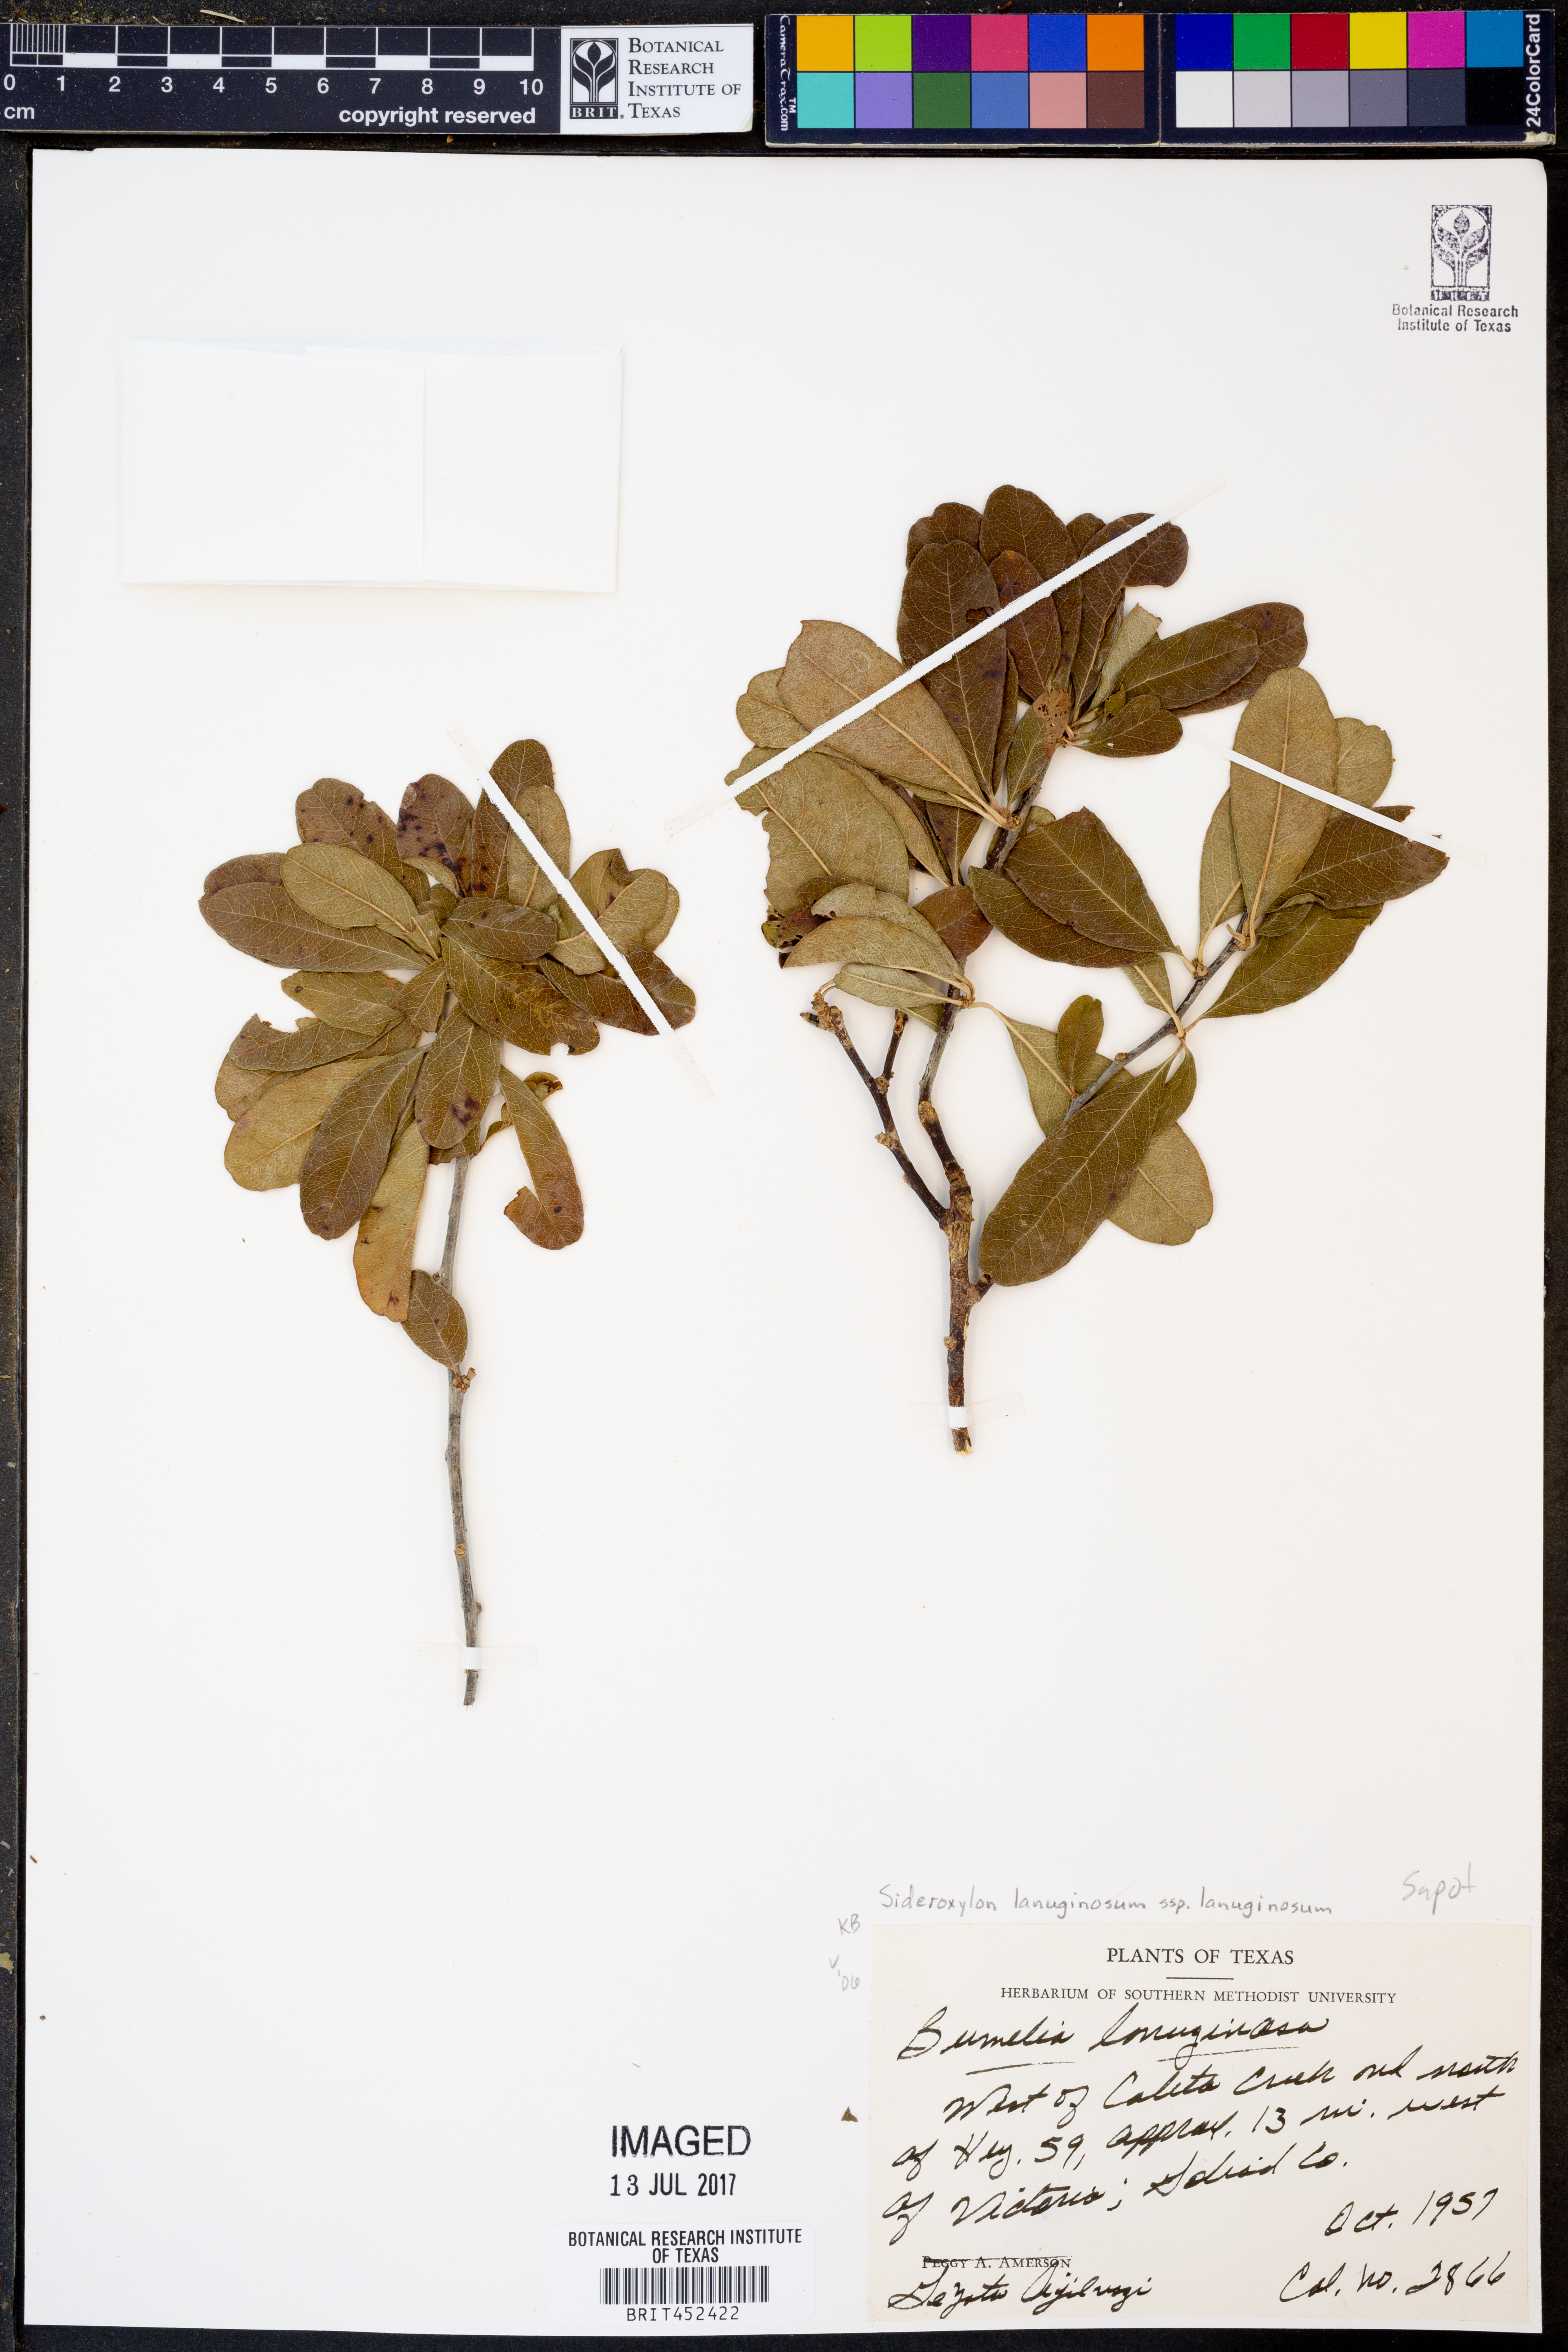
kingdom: Plantae
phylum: Tracheophyta
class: Magnoliopsida
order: Ericales
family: Sapotaceae
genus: Sideroxylon
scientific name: Sideroxylon lanuginosum
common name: Chittamwood
